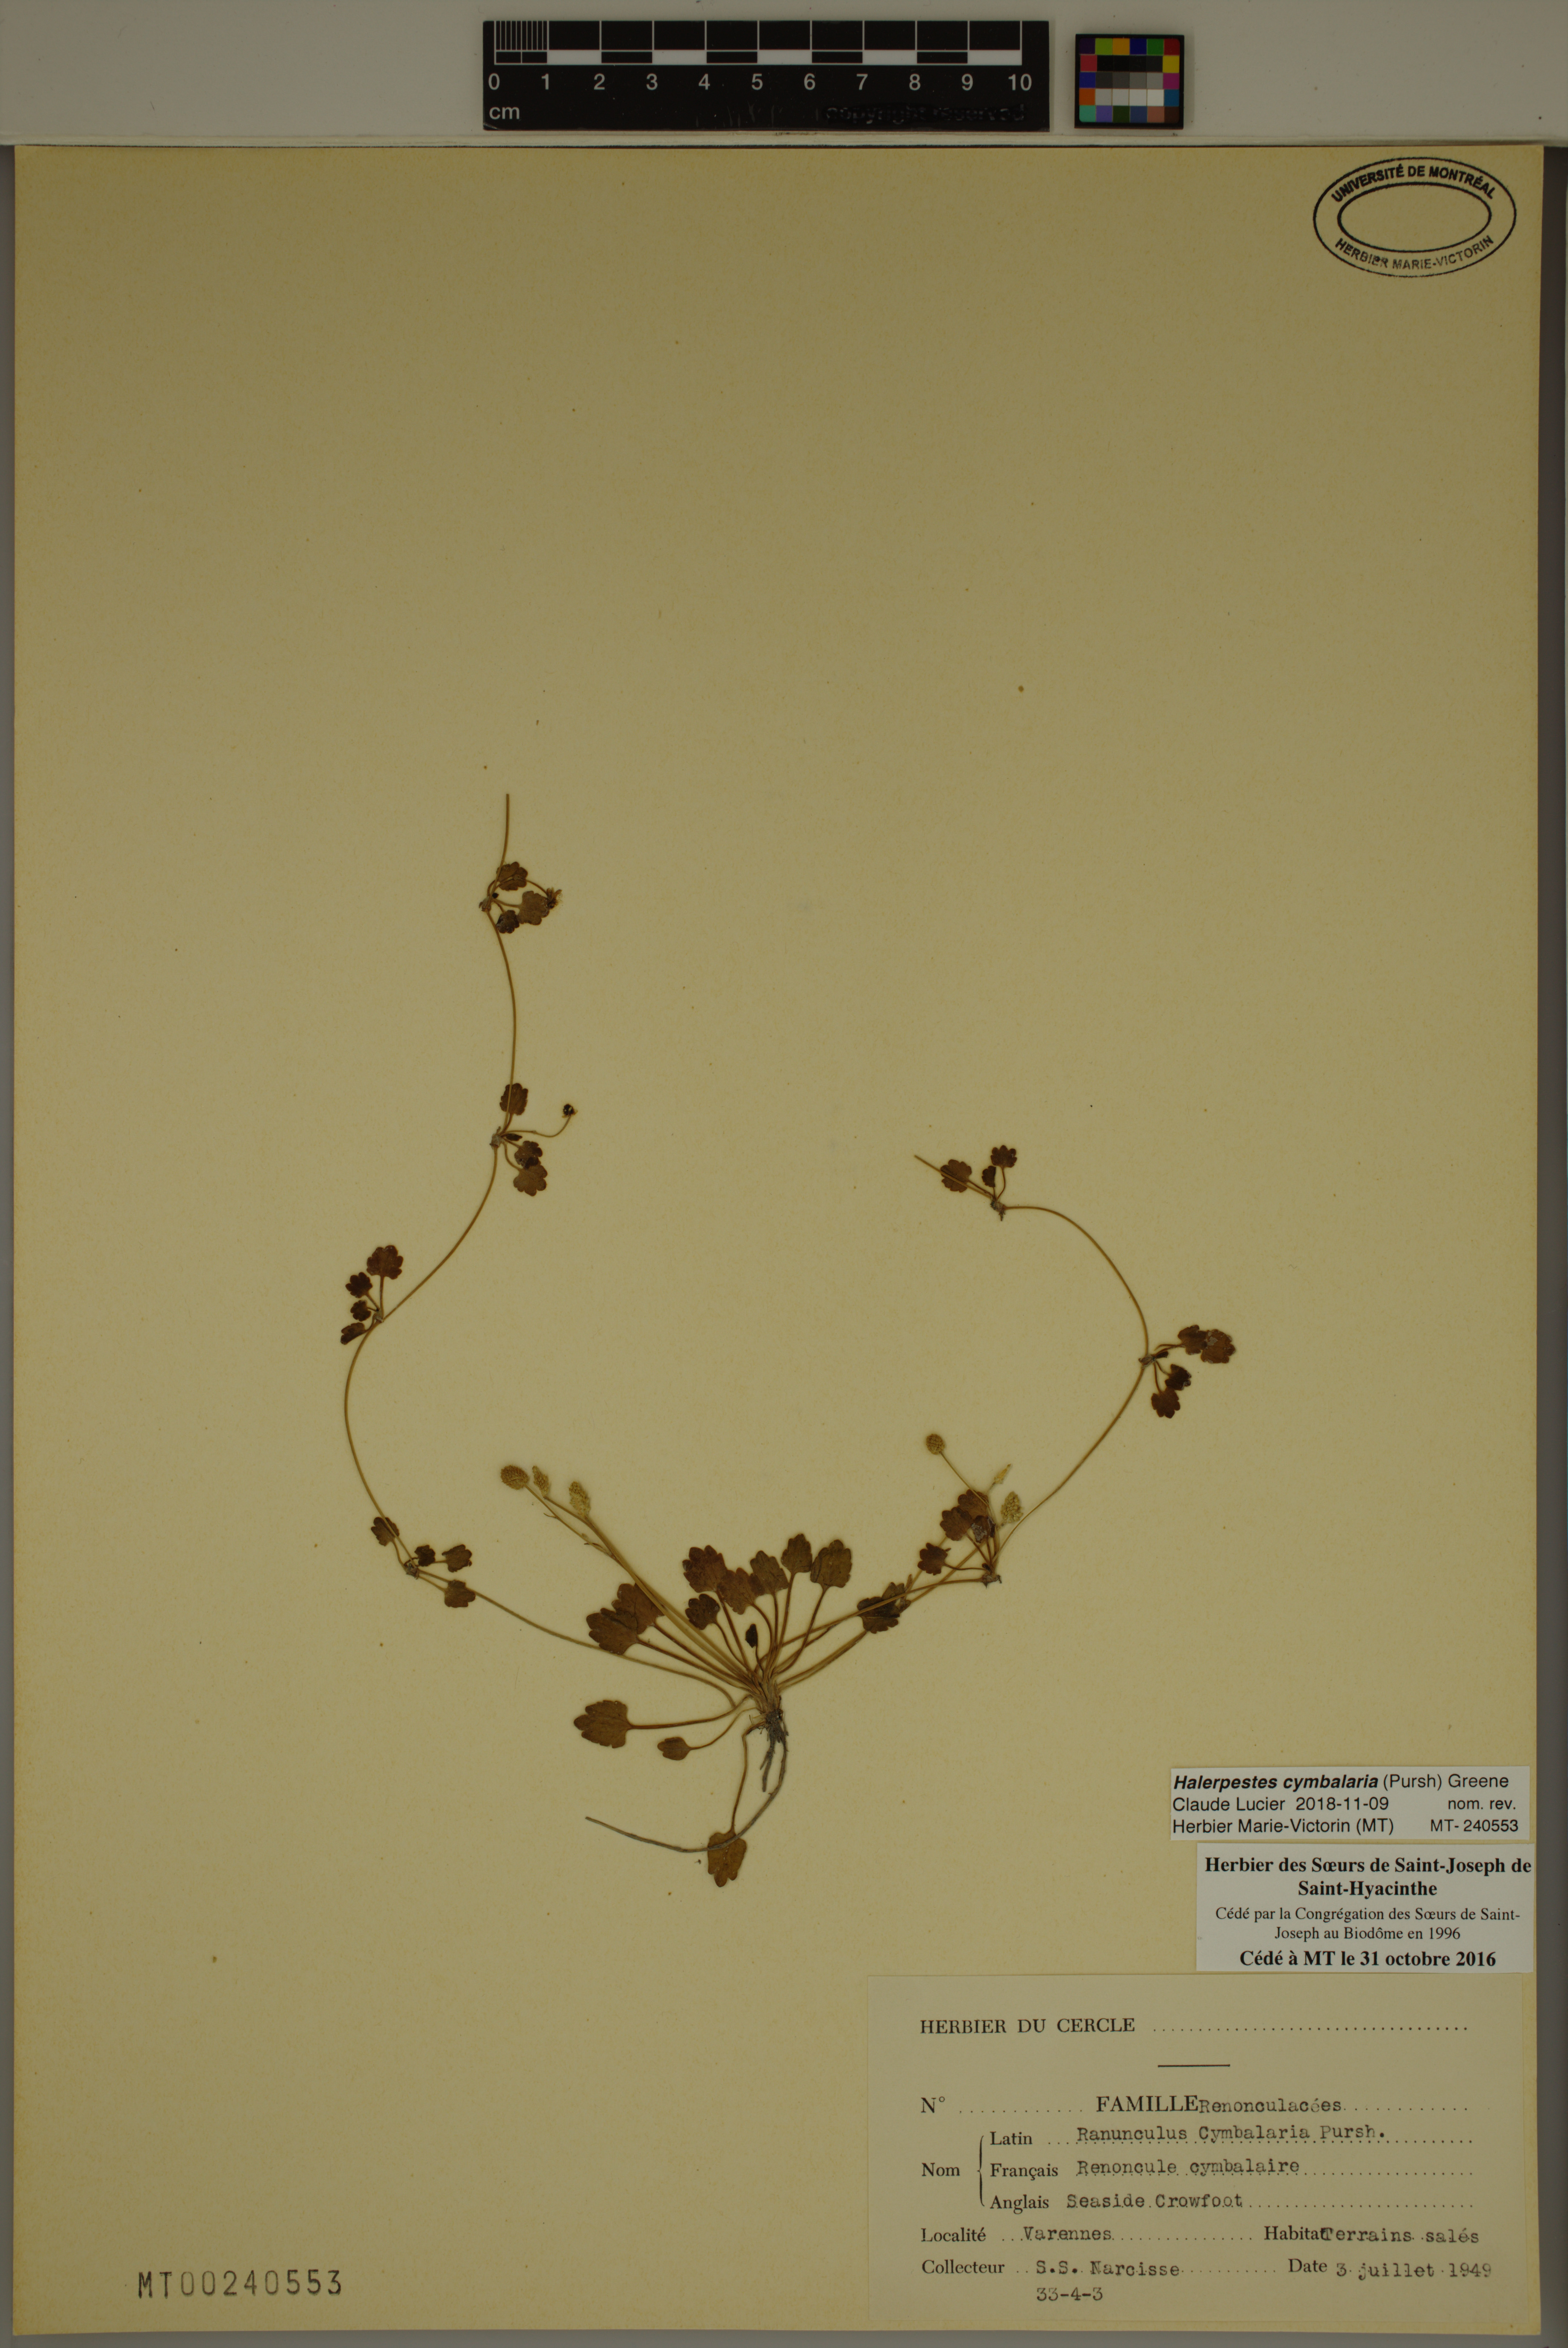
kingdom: Plantae
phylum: Tracheophyta
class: Magnoliopsida
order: Ranunculales
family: Ranunculaceae
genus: Halerpestes
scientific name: Halerpestes cymbalaria
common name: Seaside crowfoot
